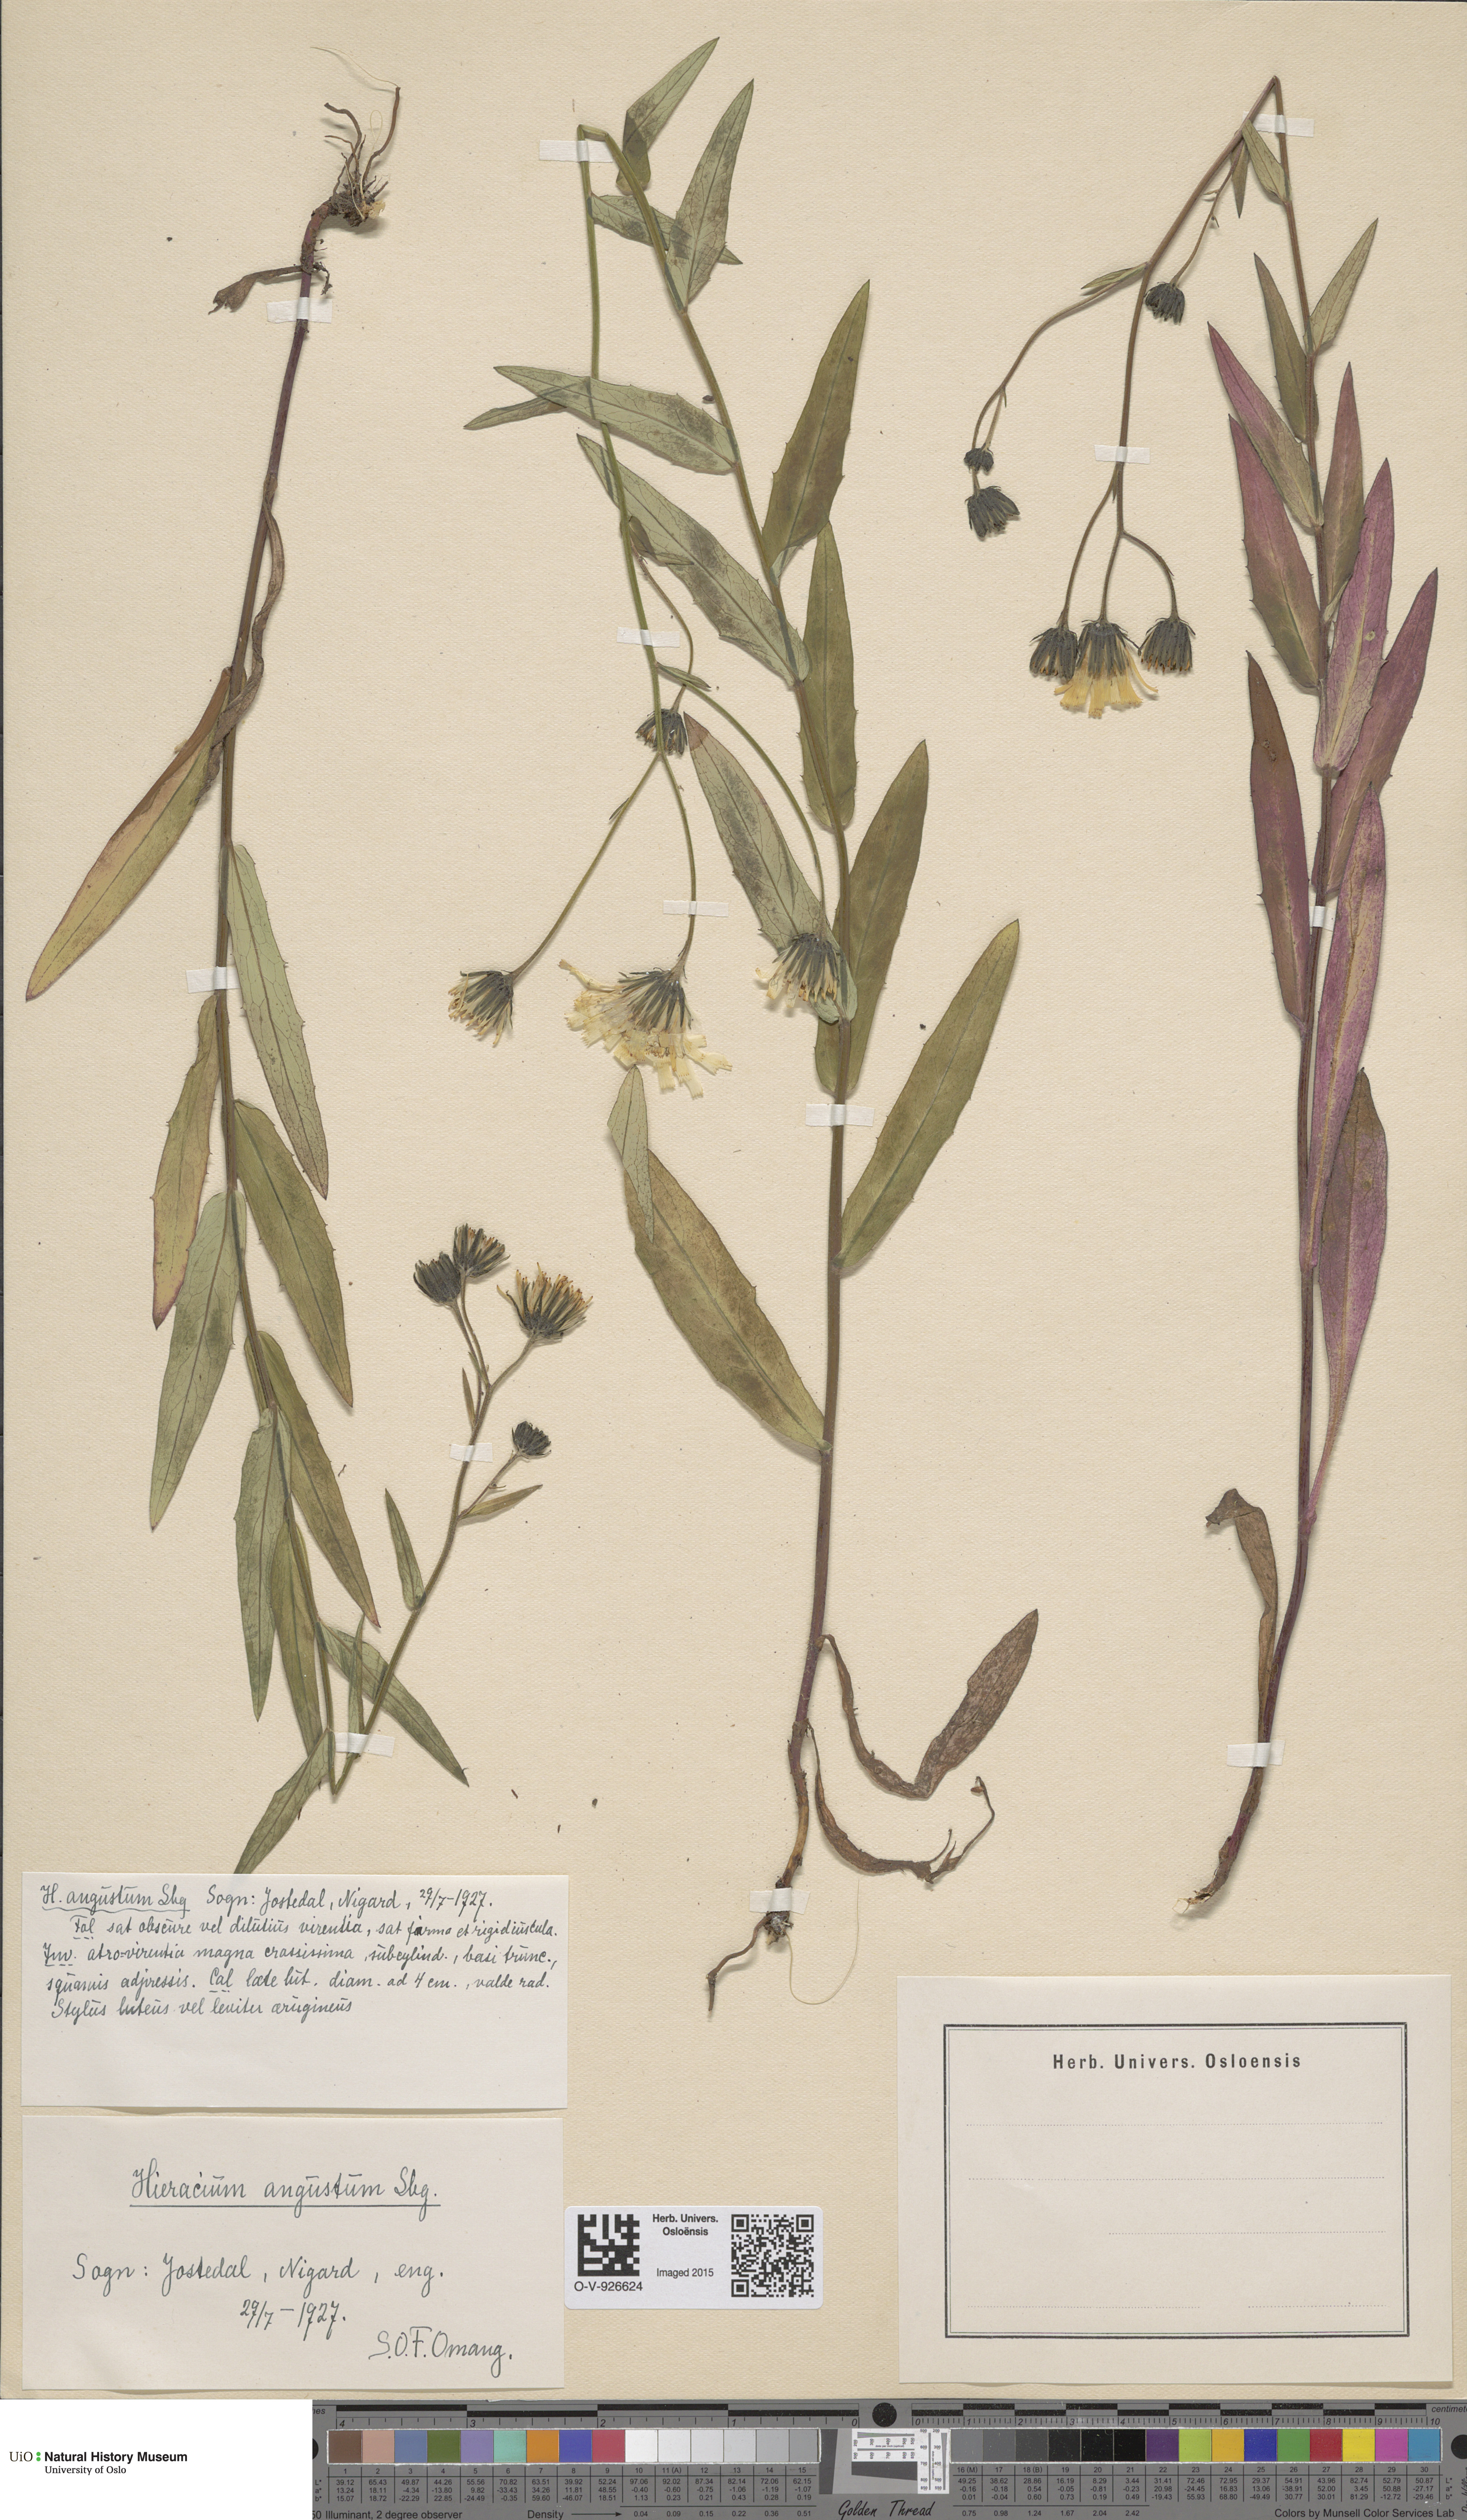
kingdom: Plantae
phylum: Tracheophyta
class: Magnoliopsida
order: Asterales
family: Asteraceae
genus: Hieracium
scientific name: Hieracium angustum
